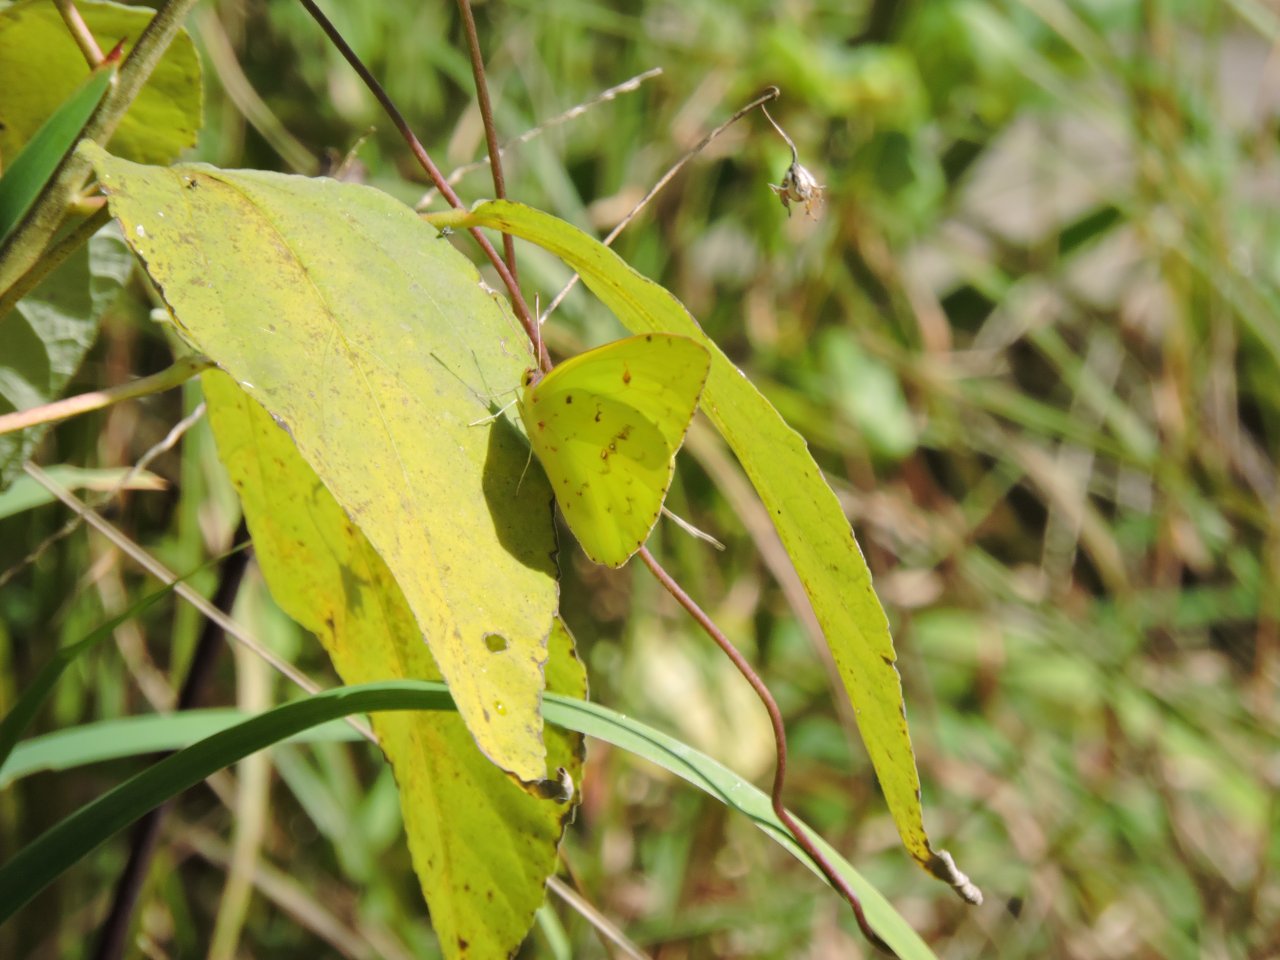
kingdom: Animalia
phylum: Arthropoda
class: Insecta
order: Lepidoptera
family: Pieridae
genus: Phoebis
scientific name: Phoebis sennae
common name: Cloudless Sulphur
